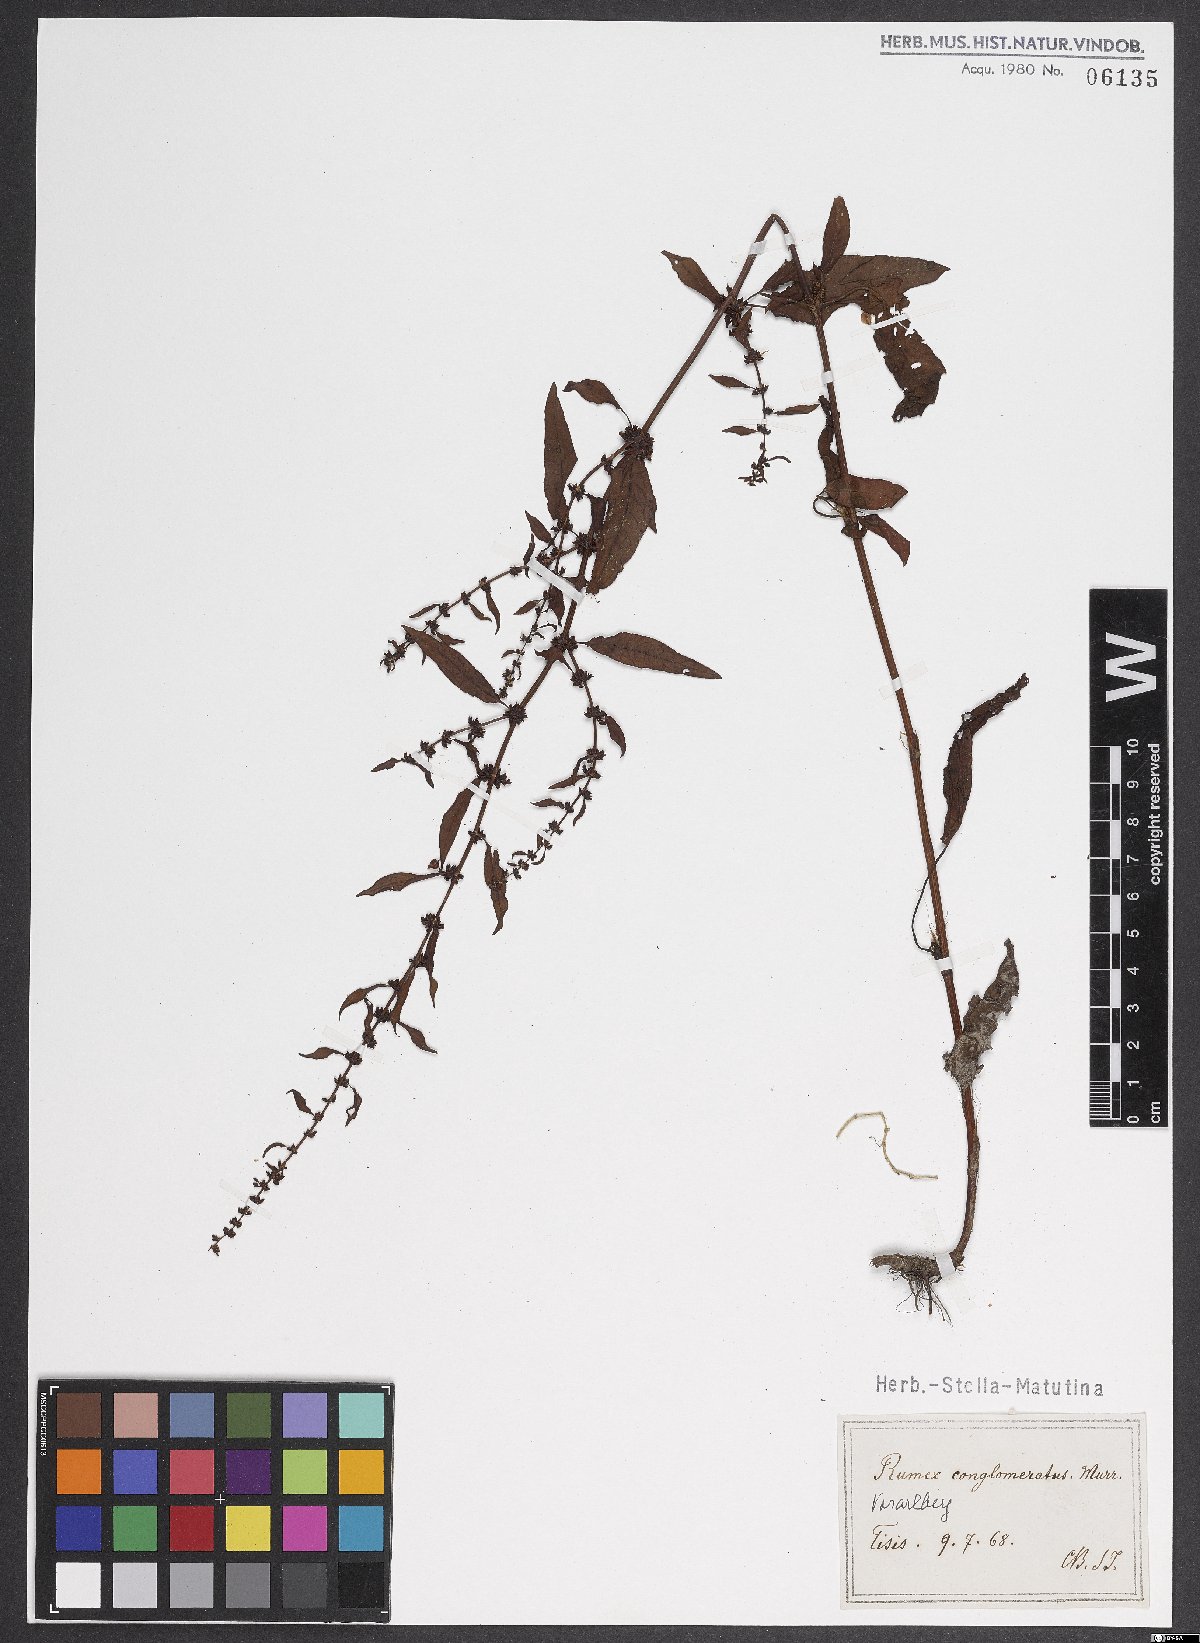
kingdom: Plantae
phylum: Tracheophyta
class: Magnoliopsida
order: Caryophyllales
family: Polygonaceae
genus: Rumex
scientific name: Rumex conglomeratus
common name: Clustered dock
